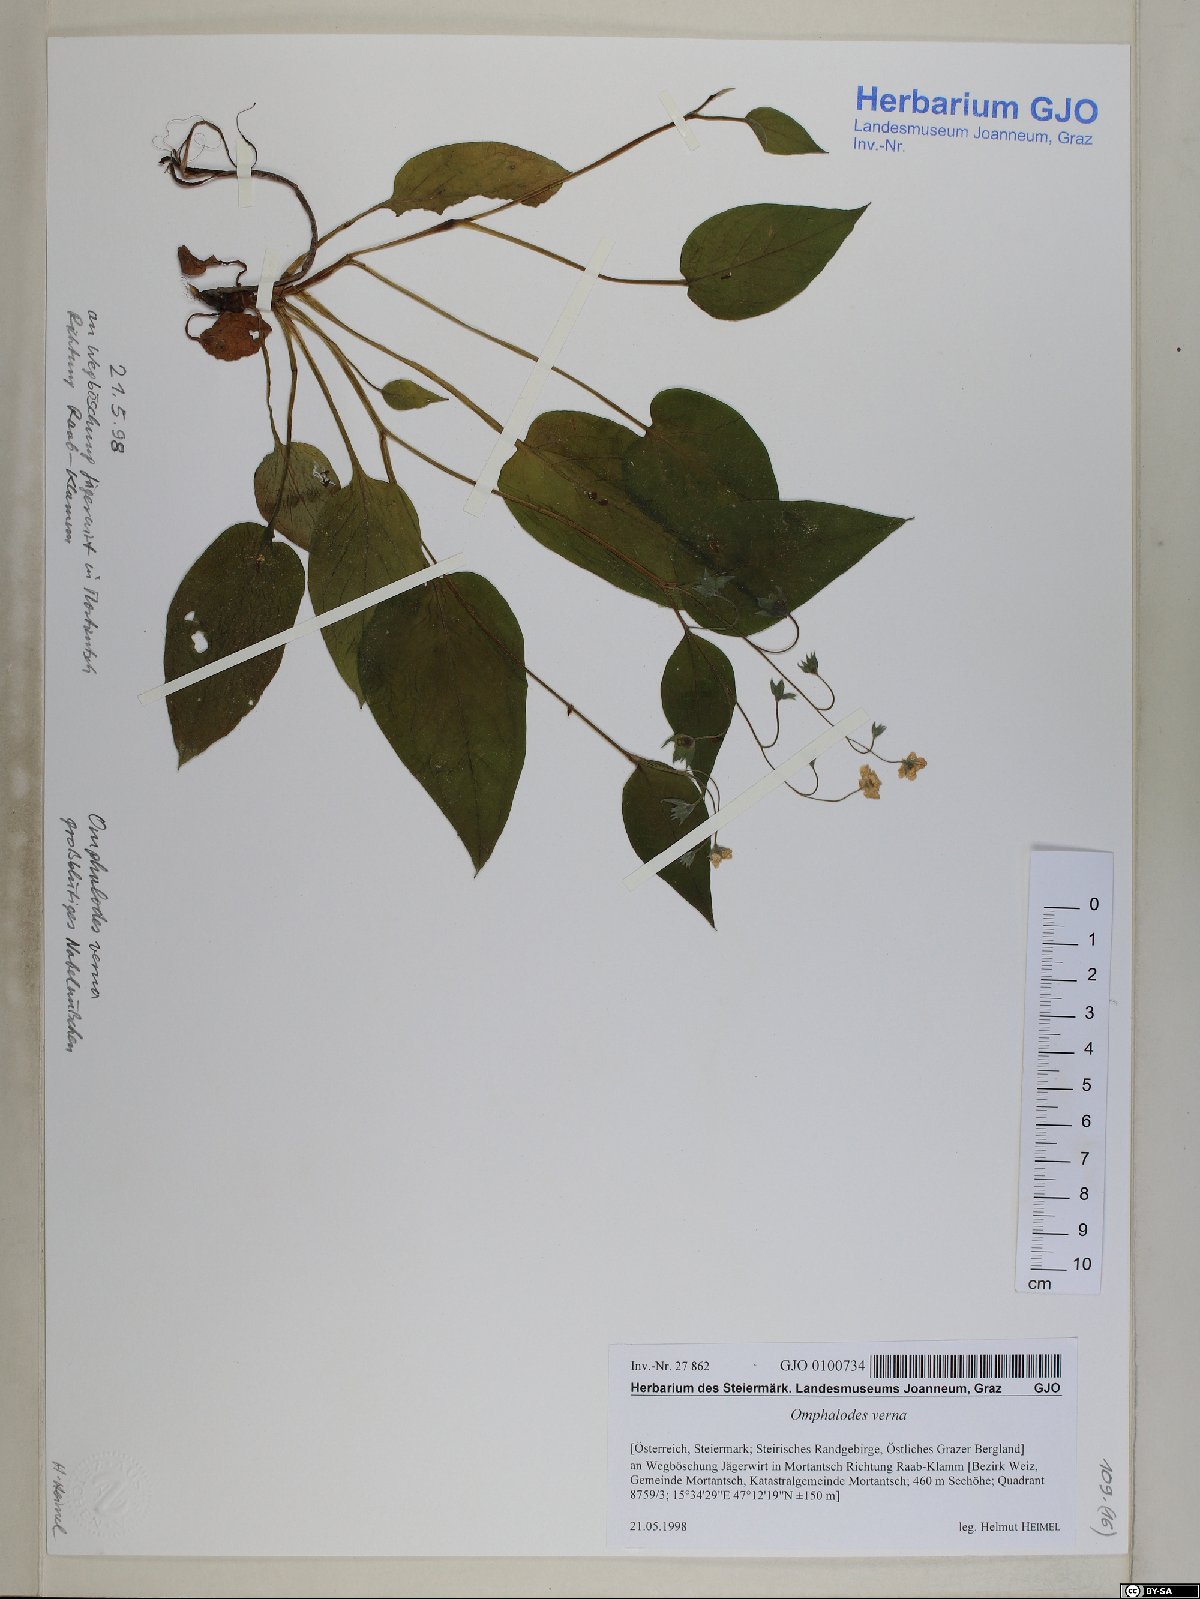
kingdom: Plantae
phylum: Tracheophyta
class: Magnoliopsida
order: Boraginales
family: Boraginaceae
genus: Omphalodes
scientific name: Omphalodes verna
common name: Blue-eyed-mary
